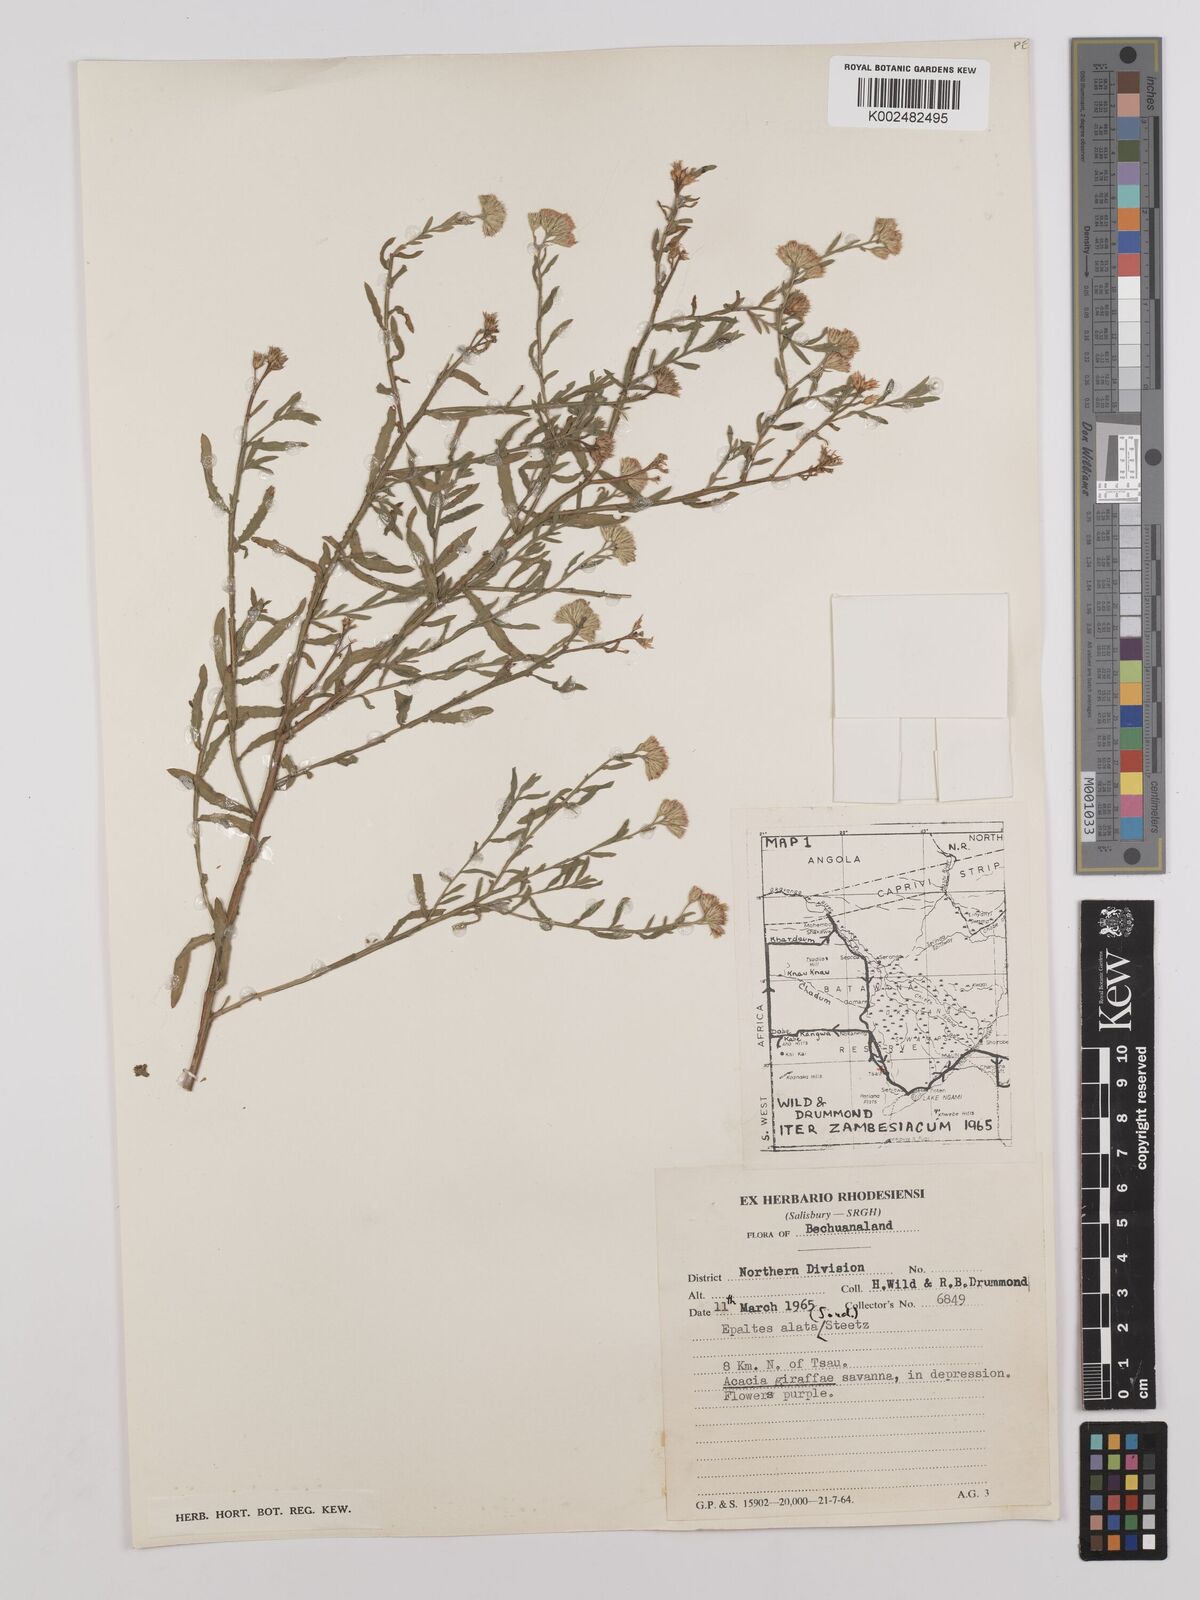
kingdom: Plantae
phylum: Tracheophyta
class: Magnoliopsida
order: Asterales
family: Asteraceae
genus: Litogyne
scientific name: Litogyne gariepina
